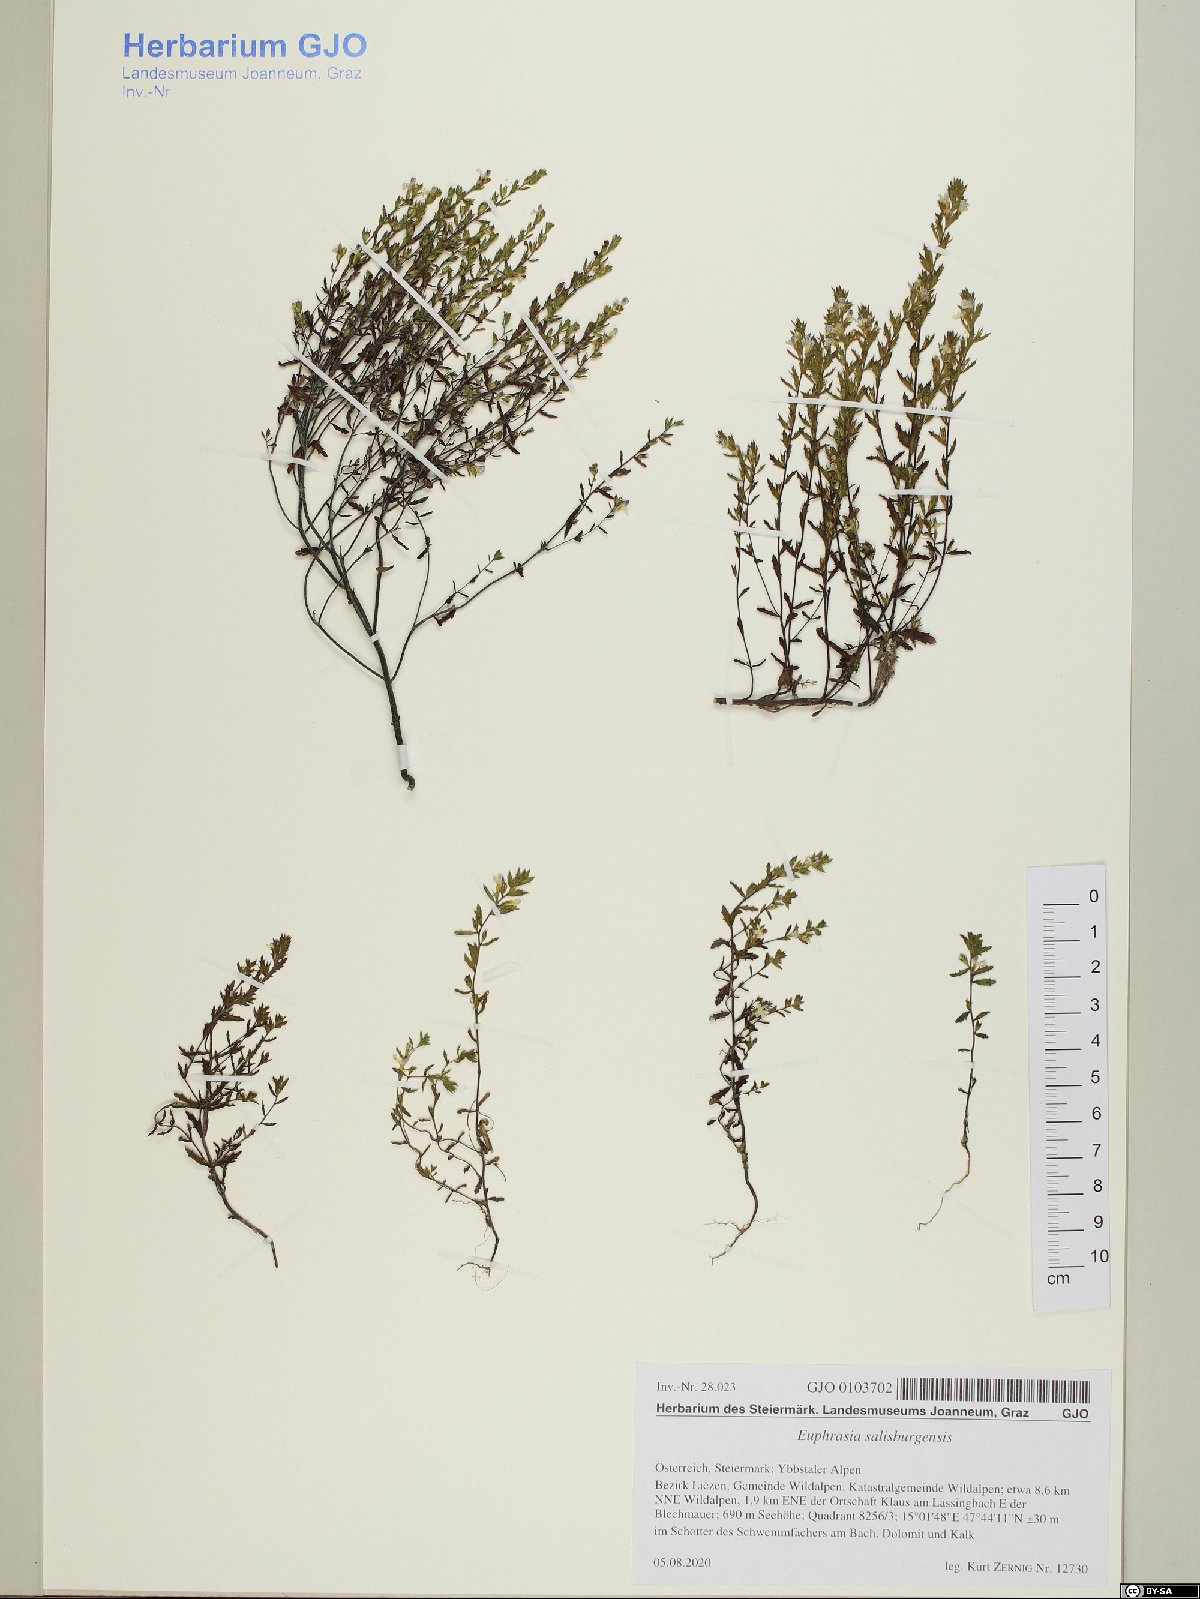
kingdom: Plantae
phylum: Tracheophyta
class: Magnoliopsida
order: Lamiales
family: Orobanchaceae
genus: Euphrasia
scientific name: Euphrasia salisburgensis
